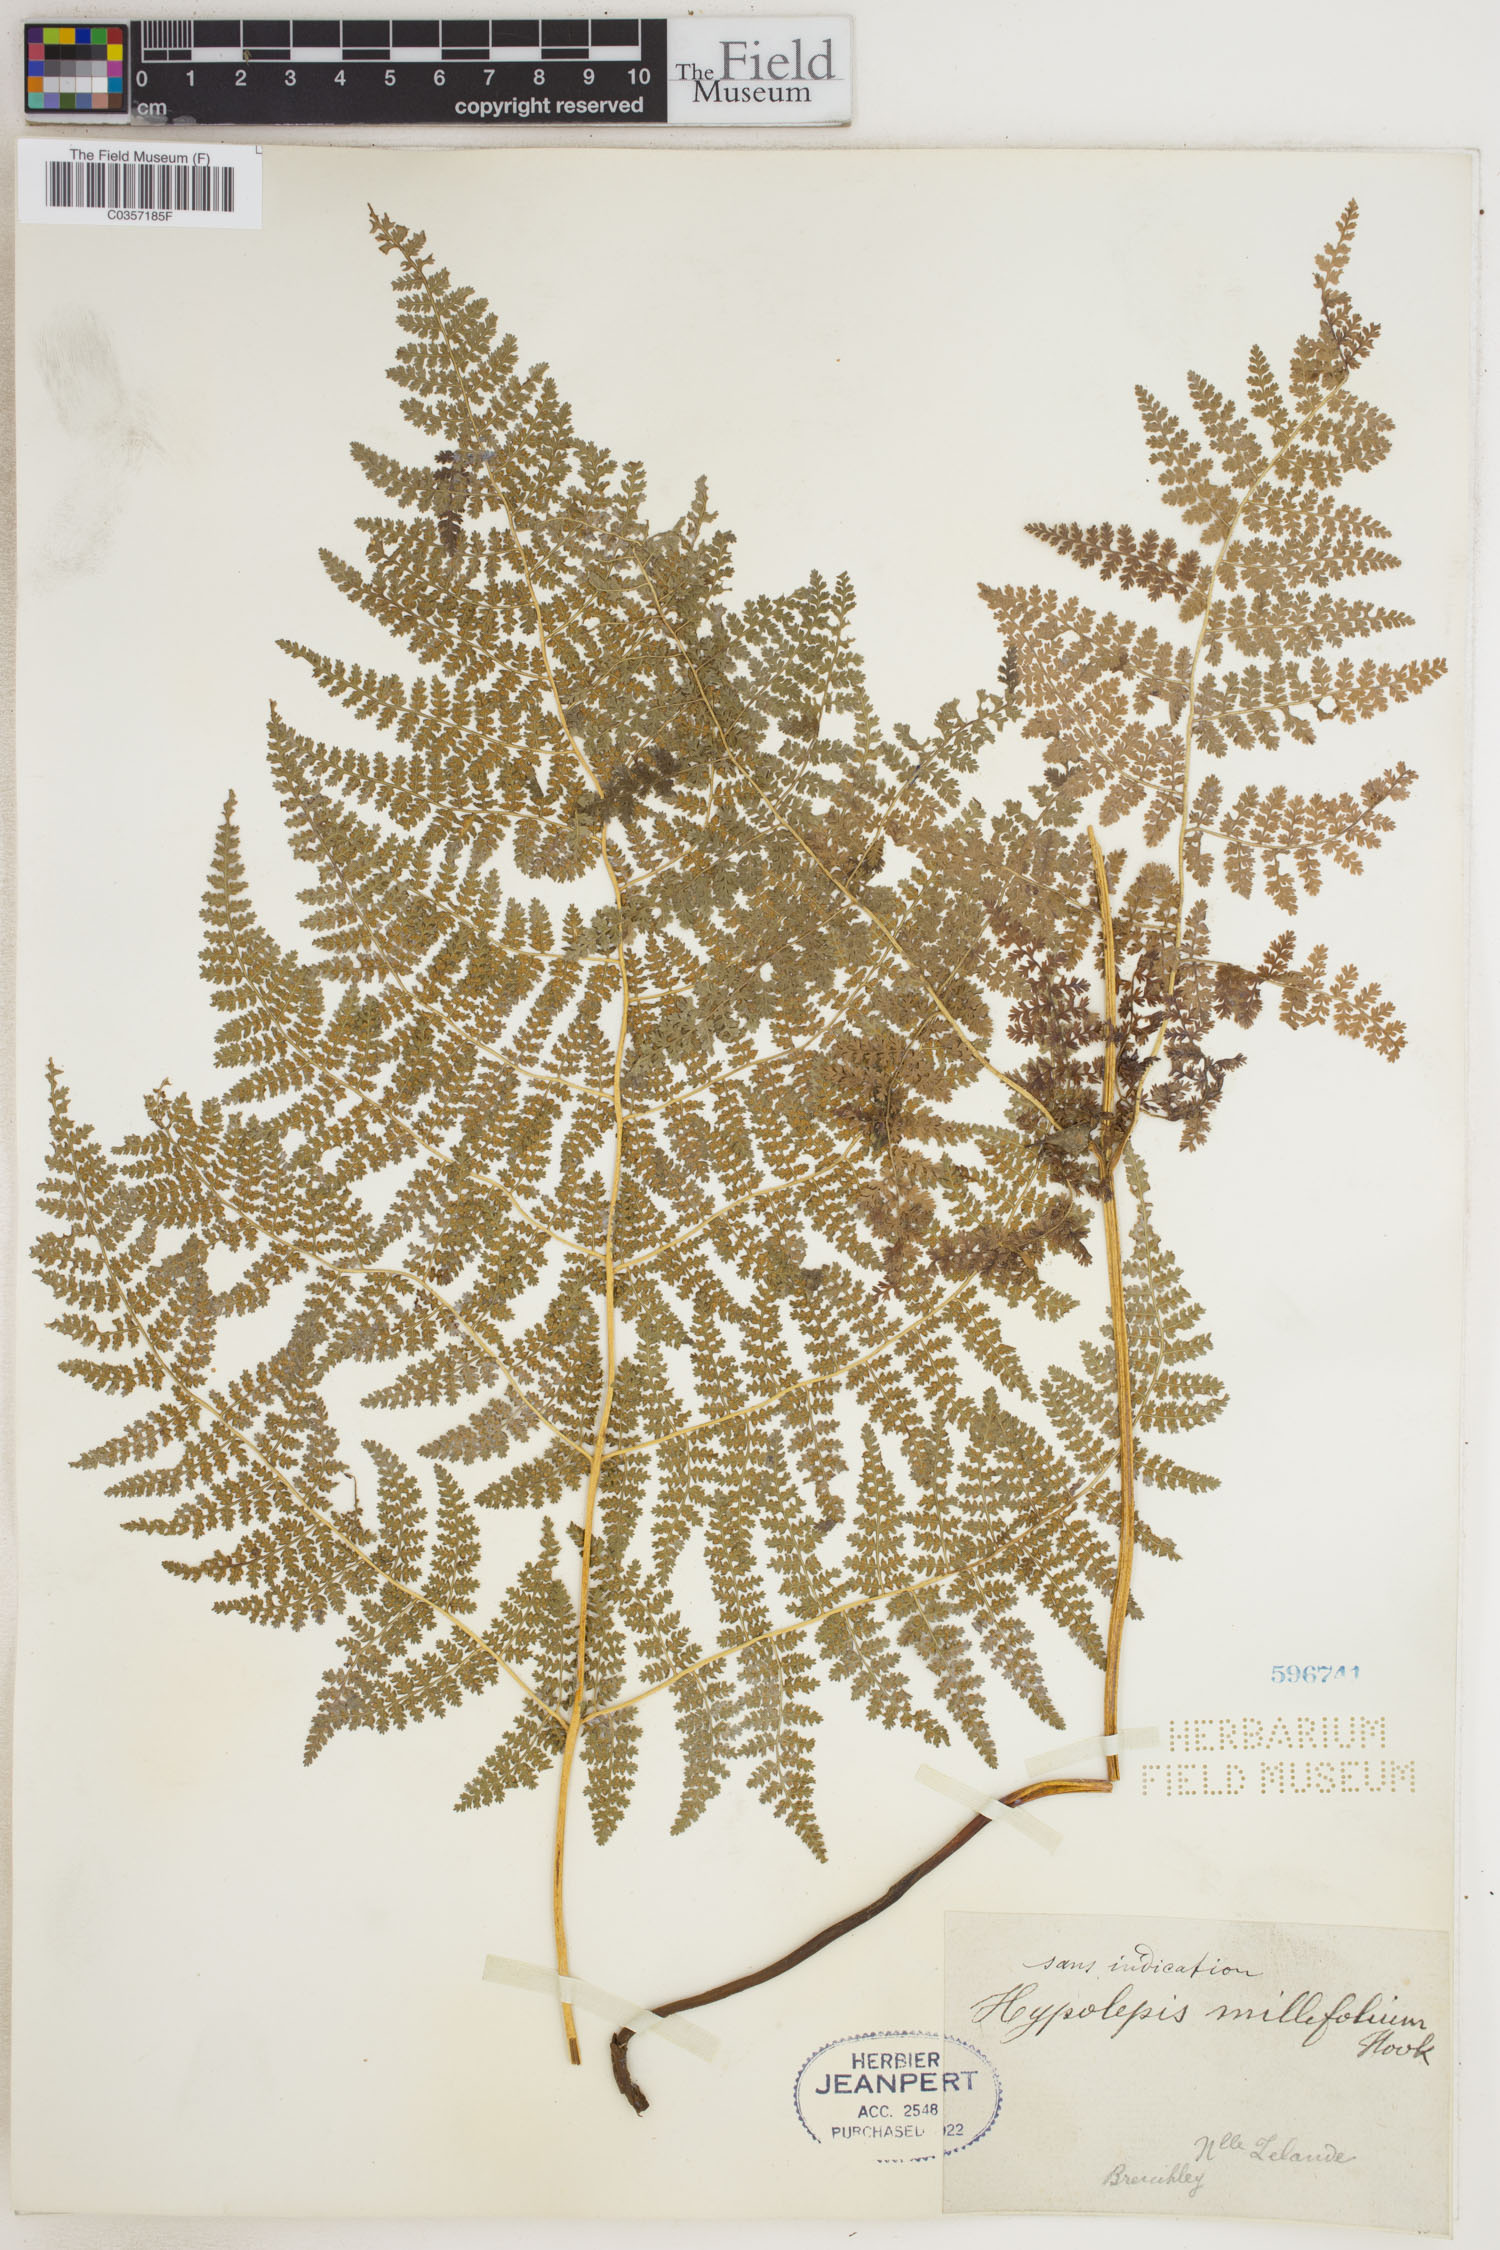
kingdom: Plantae
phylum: Tracheophyta
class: Polypodiopsida
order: Polypodiales
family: Dennstaedtiaceae
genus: Hypolepis
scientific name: Hypolepis millefolium
